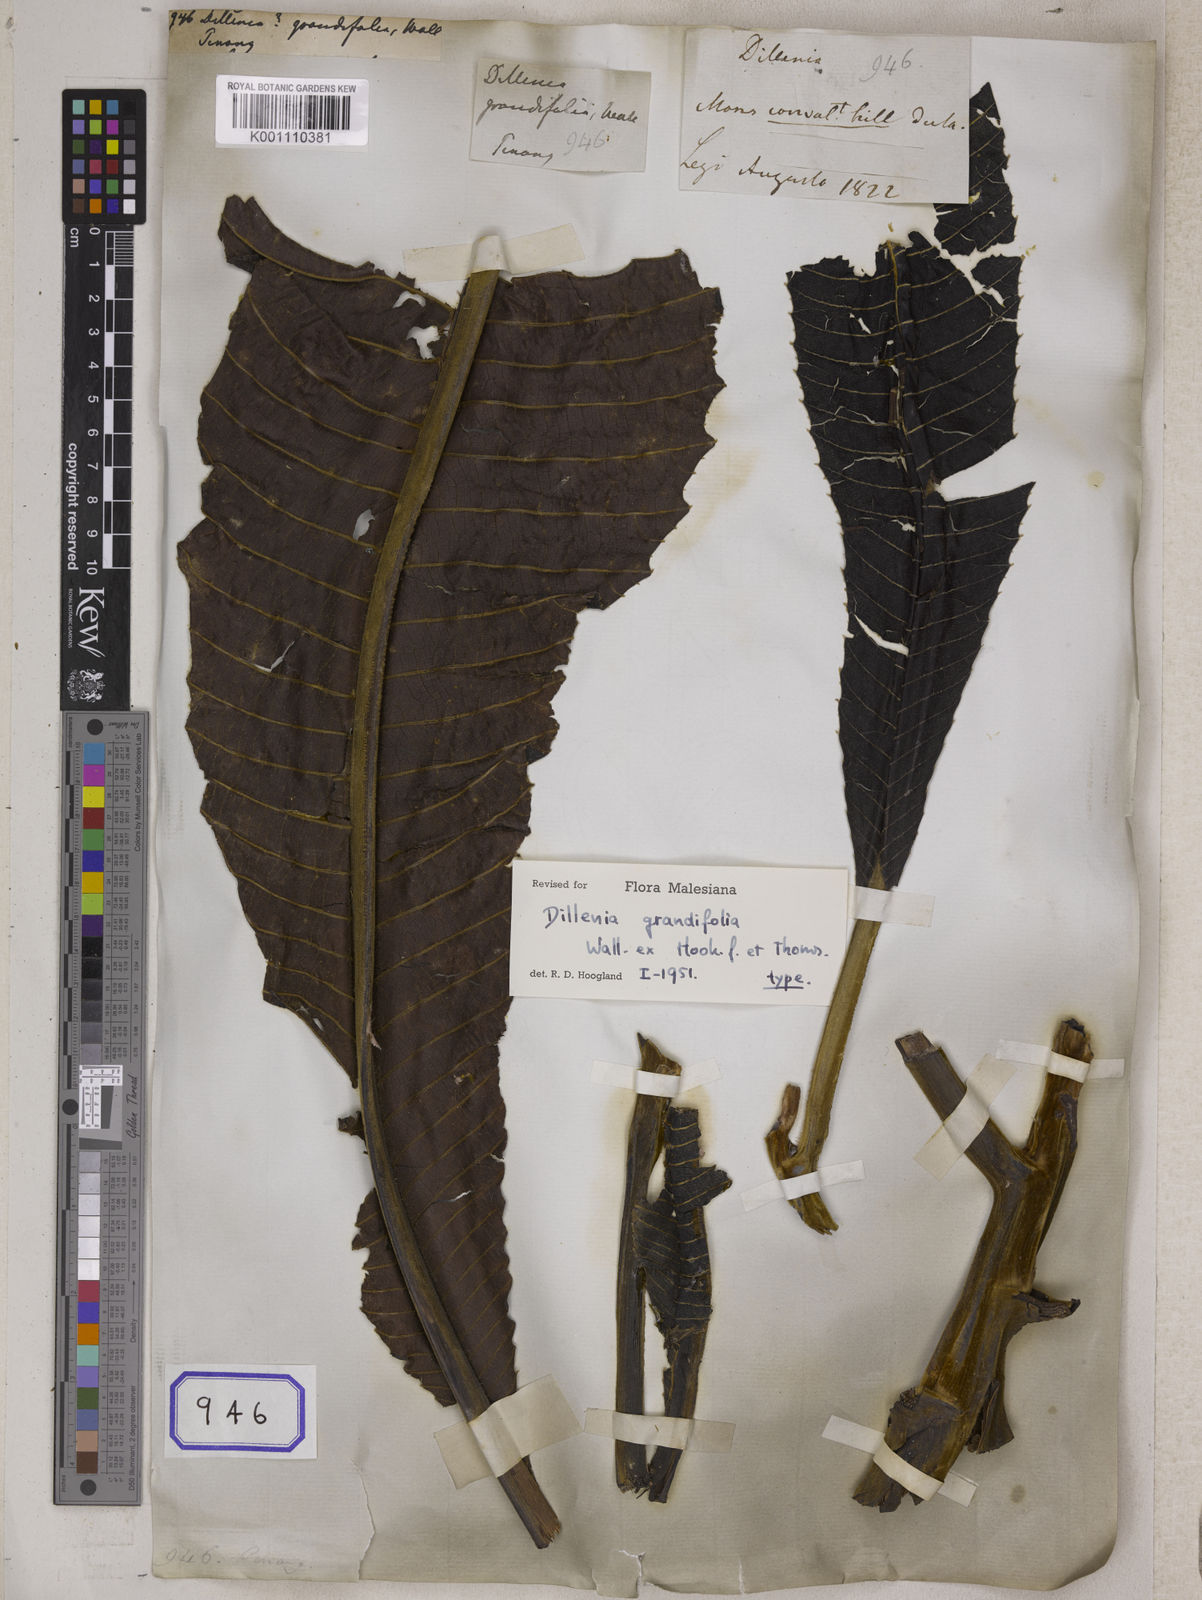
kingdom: Plantae
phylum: Tracheophyta
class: Magnoliopsida
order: Dilleniales
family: Dilleniaceae
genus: Dillenia
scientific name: Dillenia
